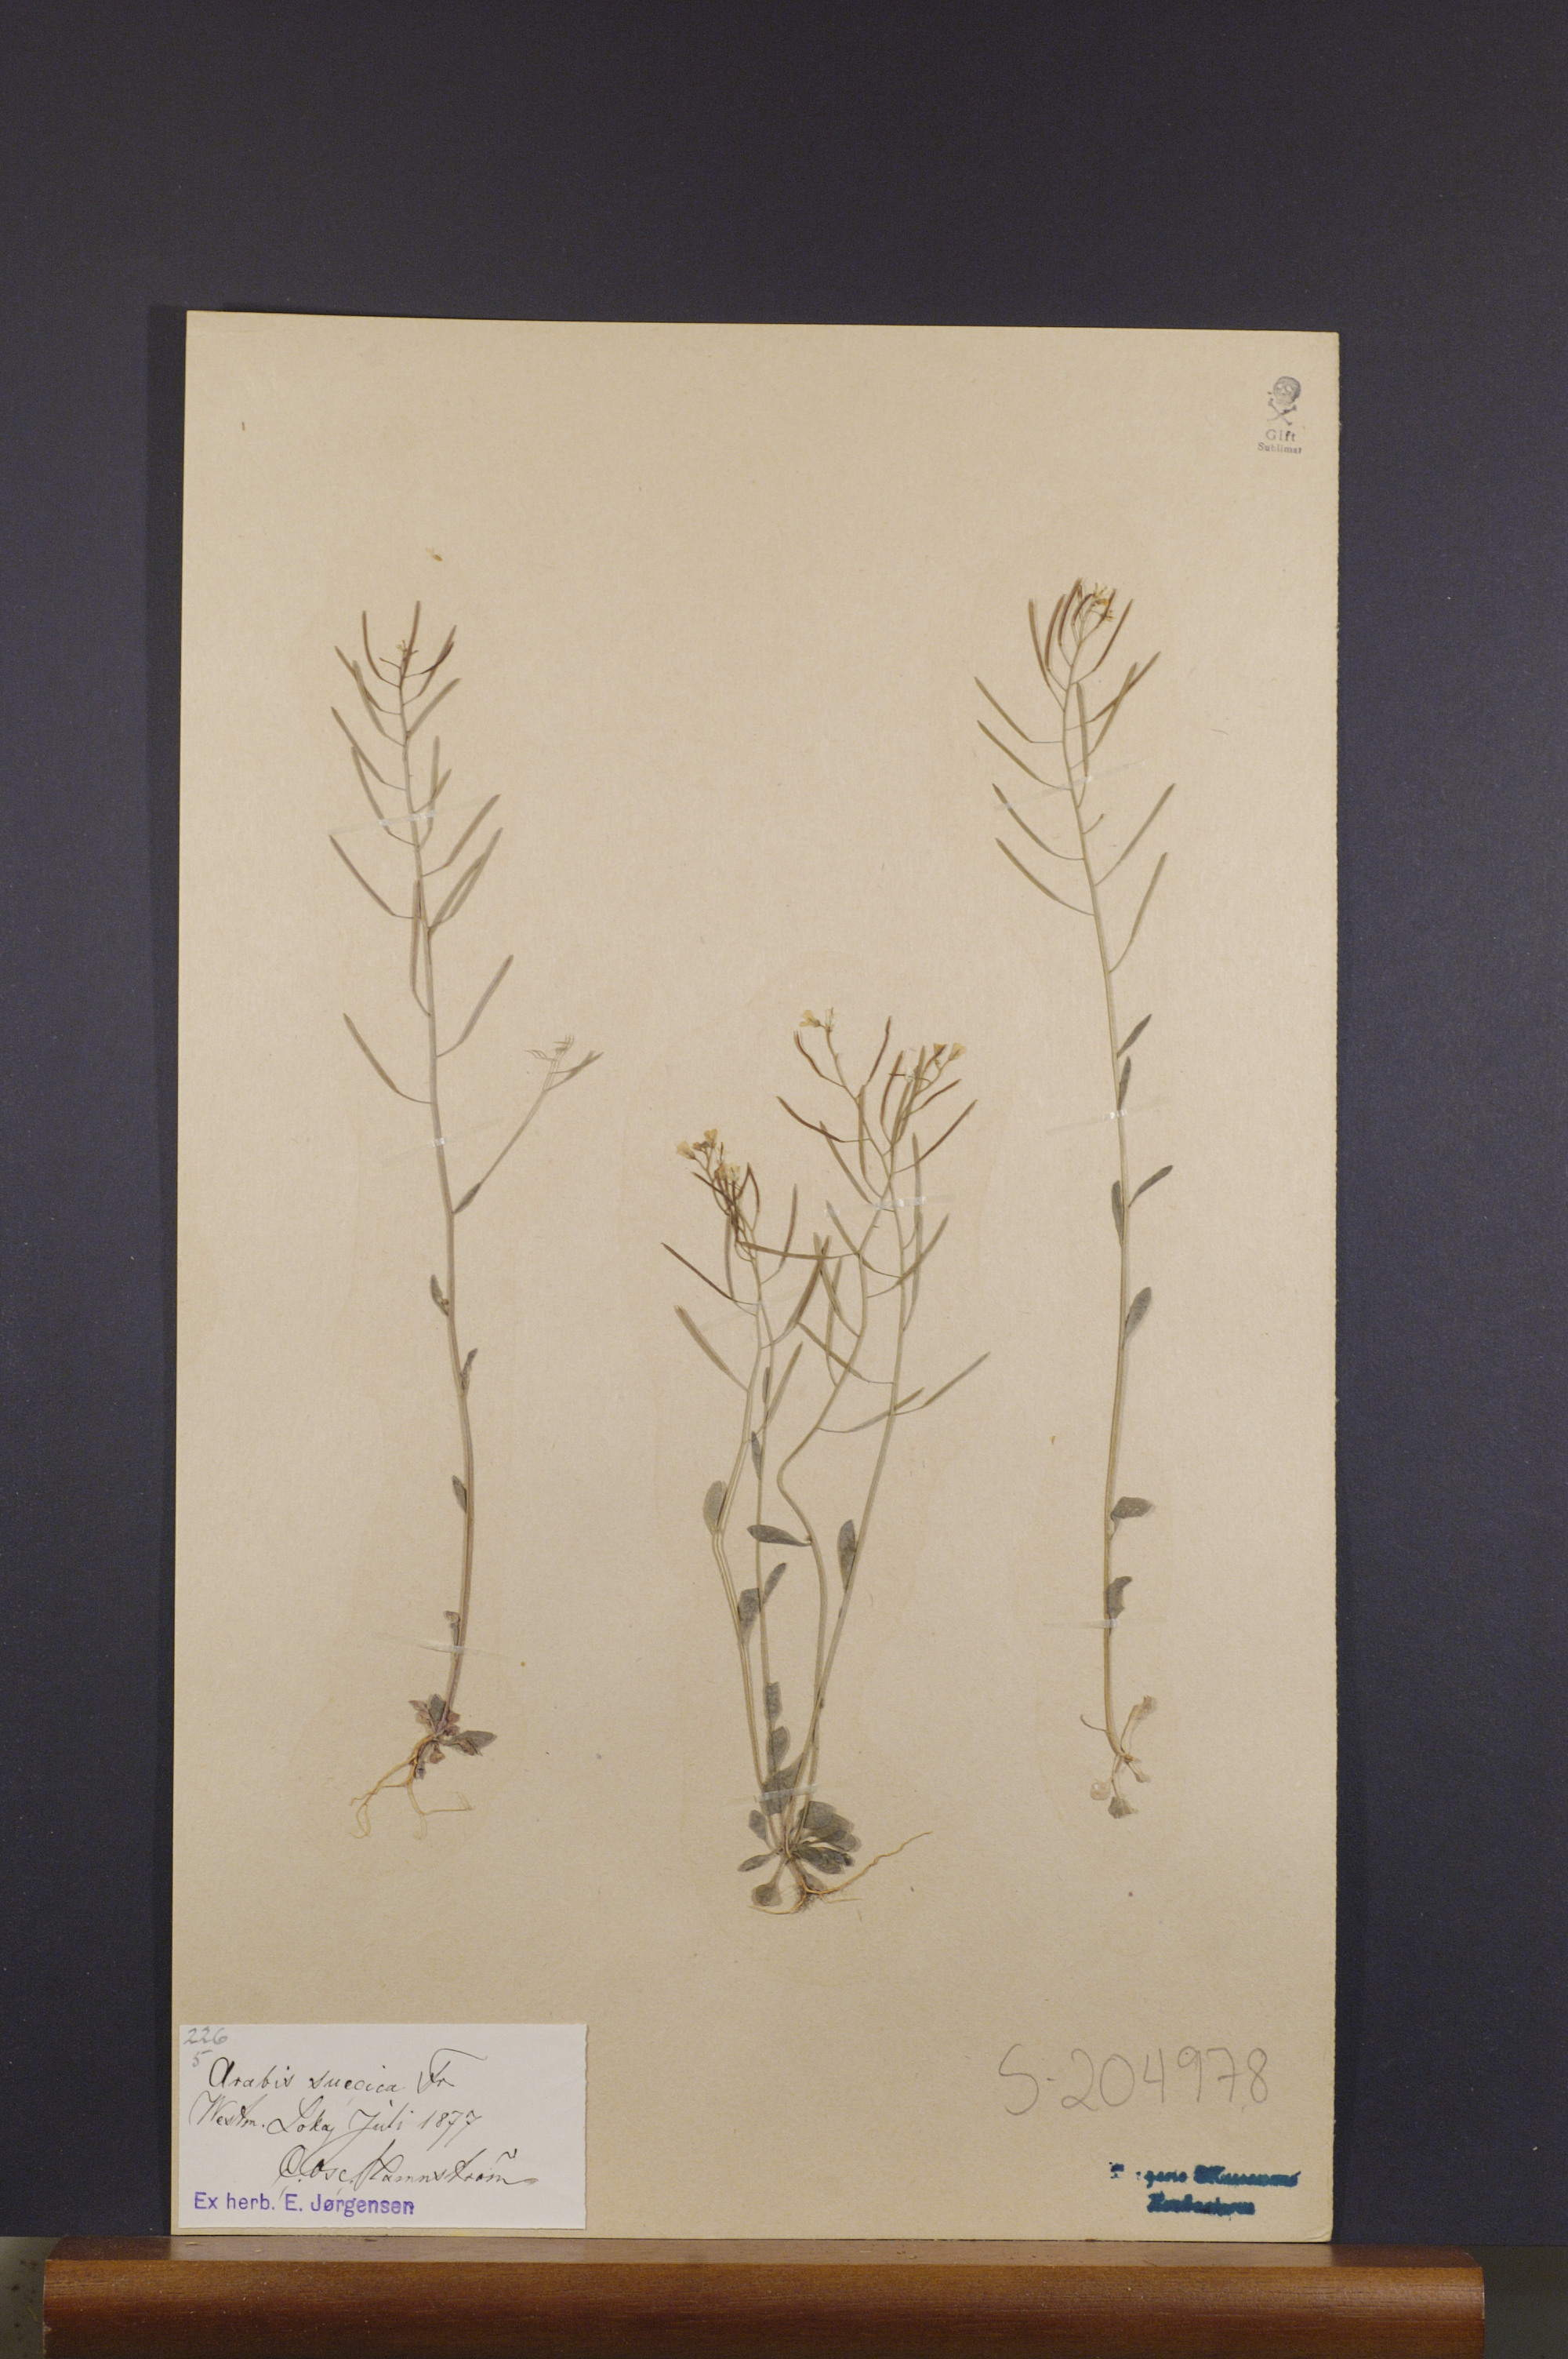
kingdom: Plantae
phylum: Tracheophyta
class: Magnoliopsida
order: Brassicales
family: Brassicaceae
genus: Arabidopsis
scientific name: Arabidopsis suecica
